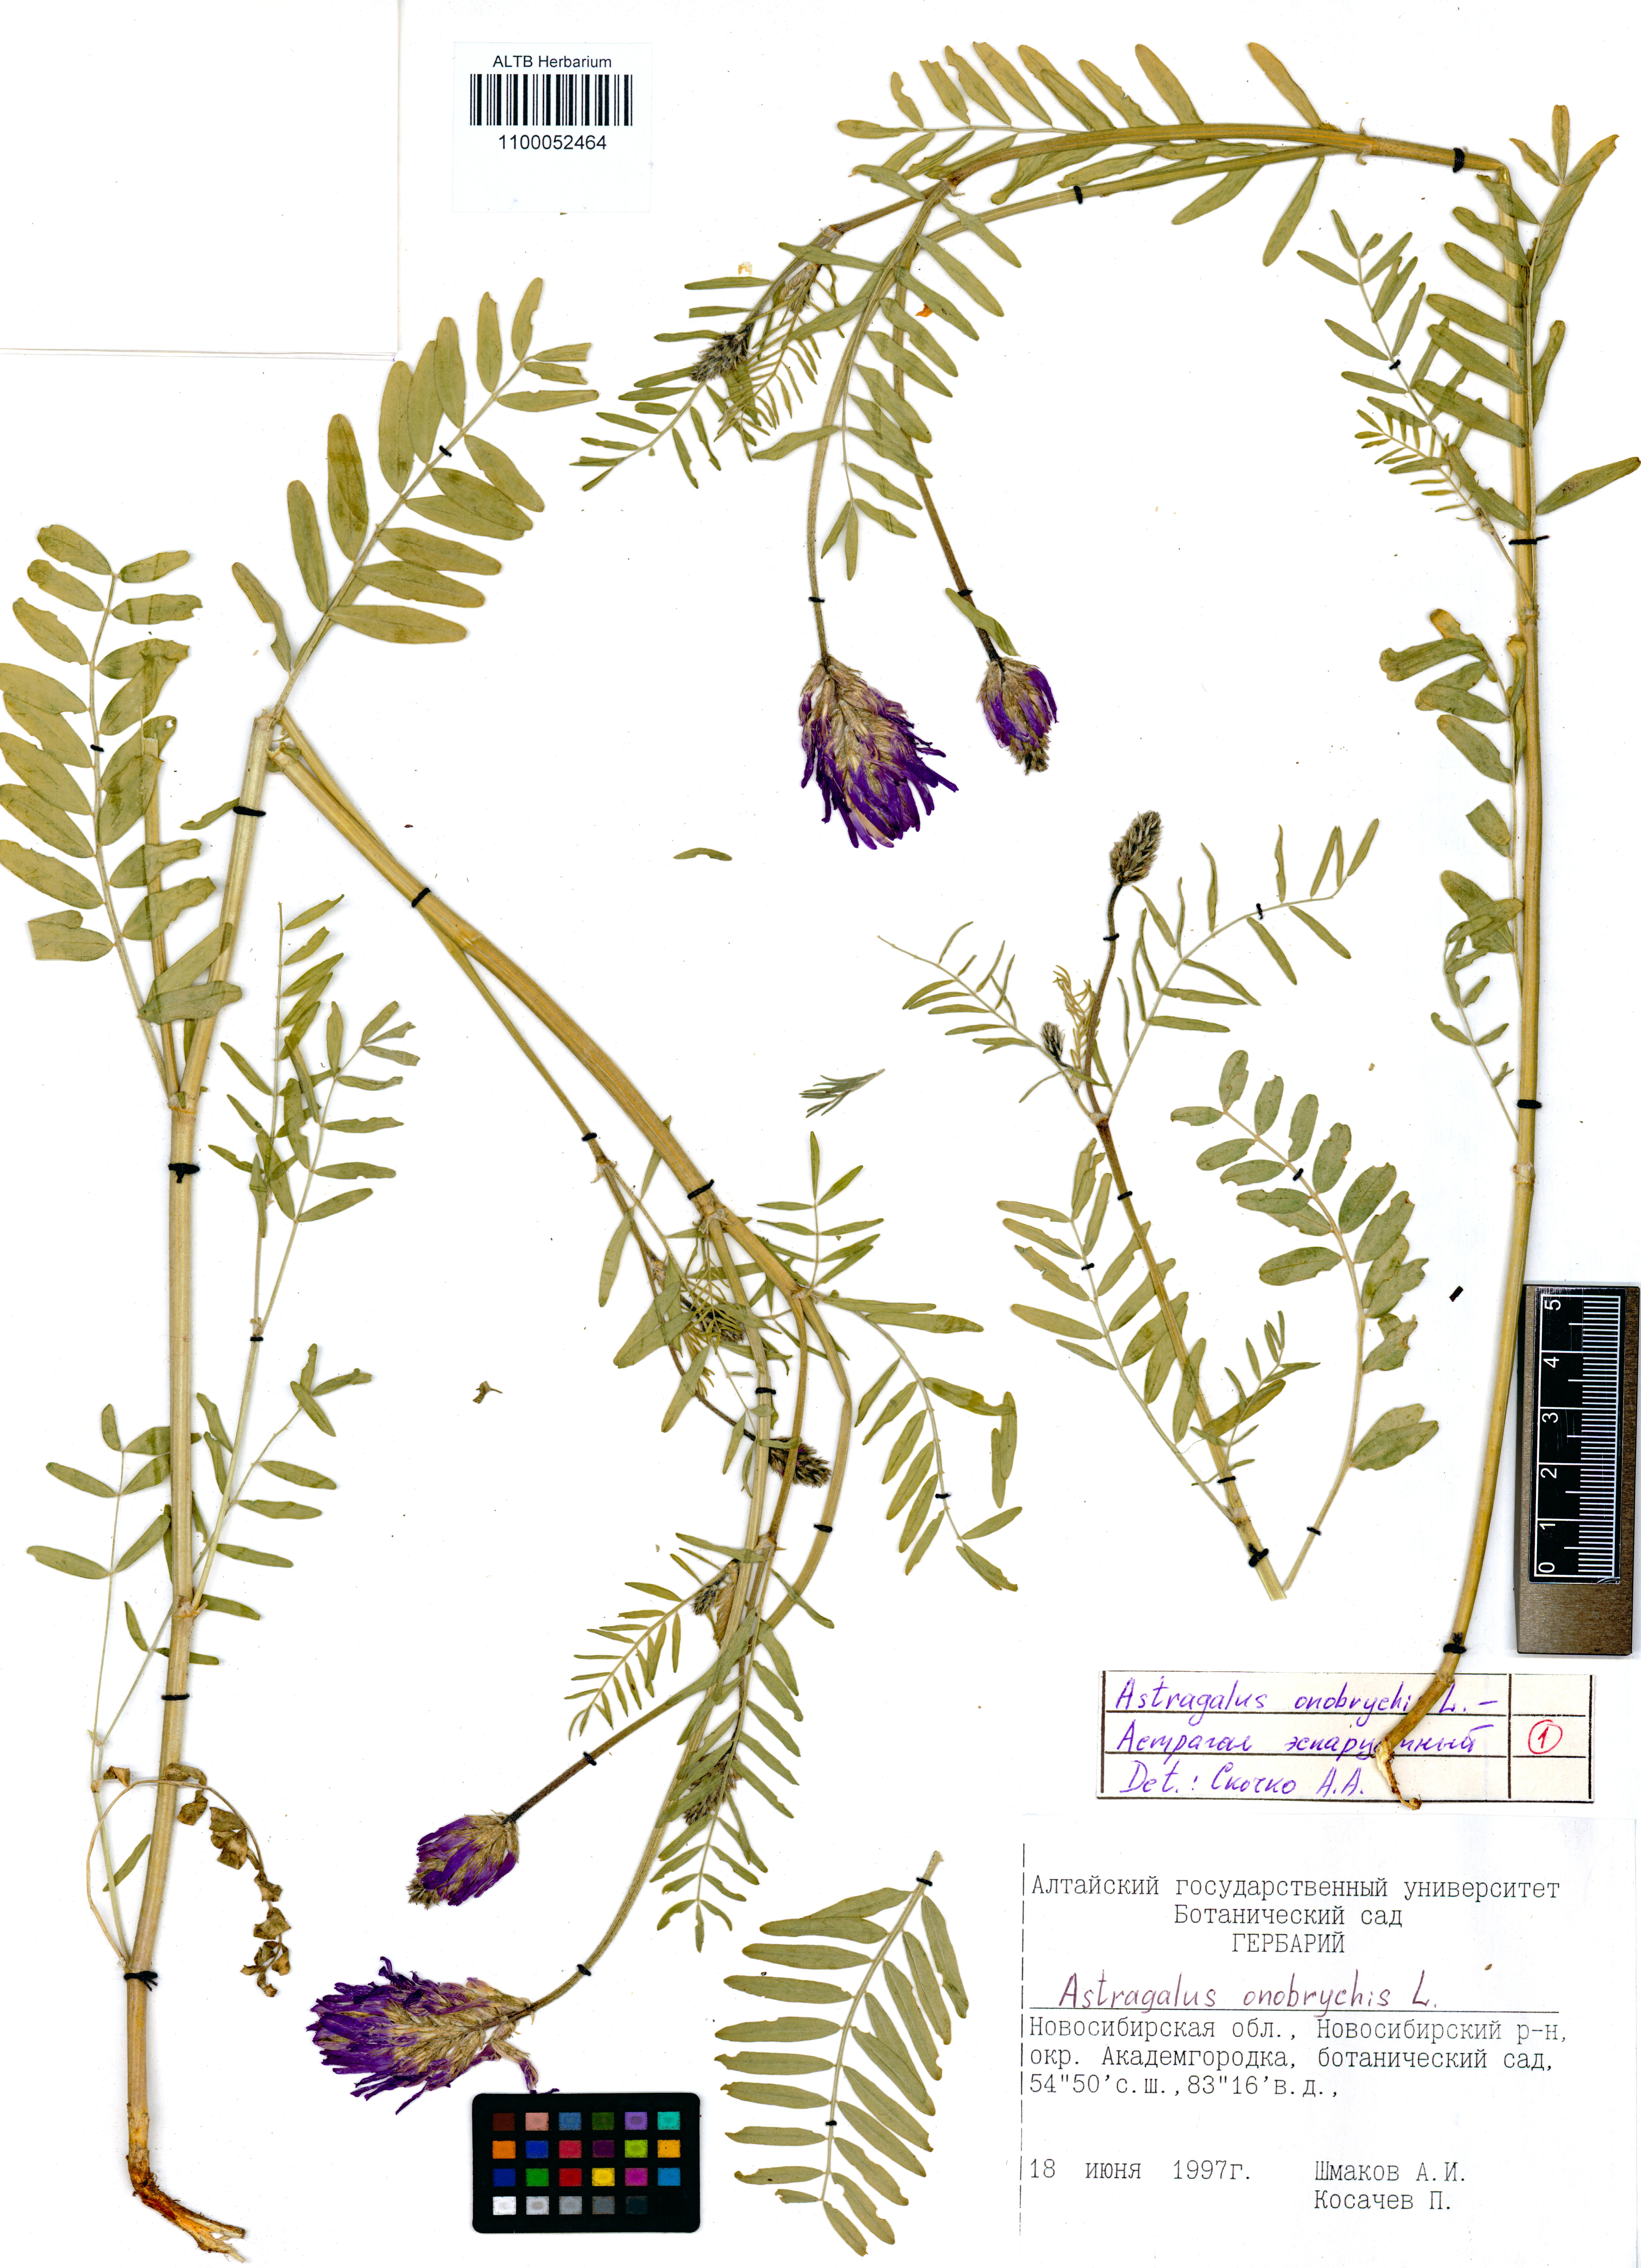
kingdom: Plantae
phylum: Tracheophyta
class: Magnoliopsida
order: Fabales
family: Fabaceae
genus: Astragalus
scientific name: Astragalus onobrychis
